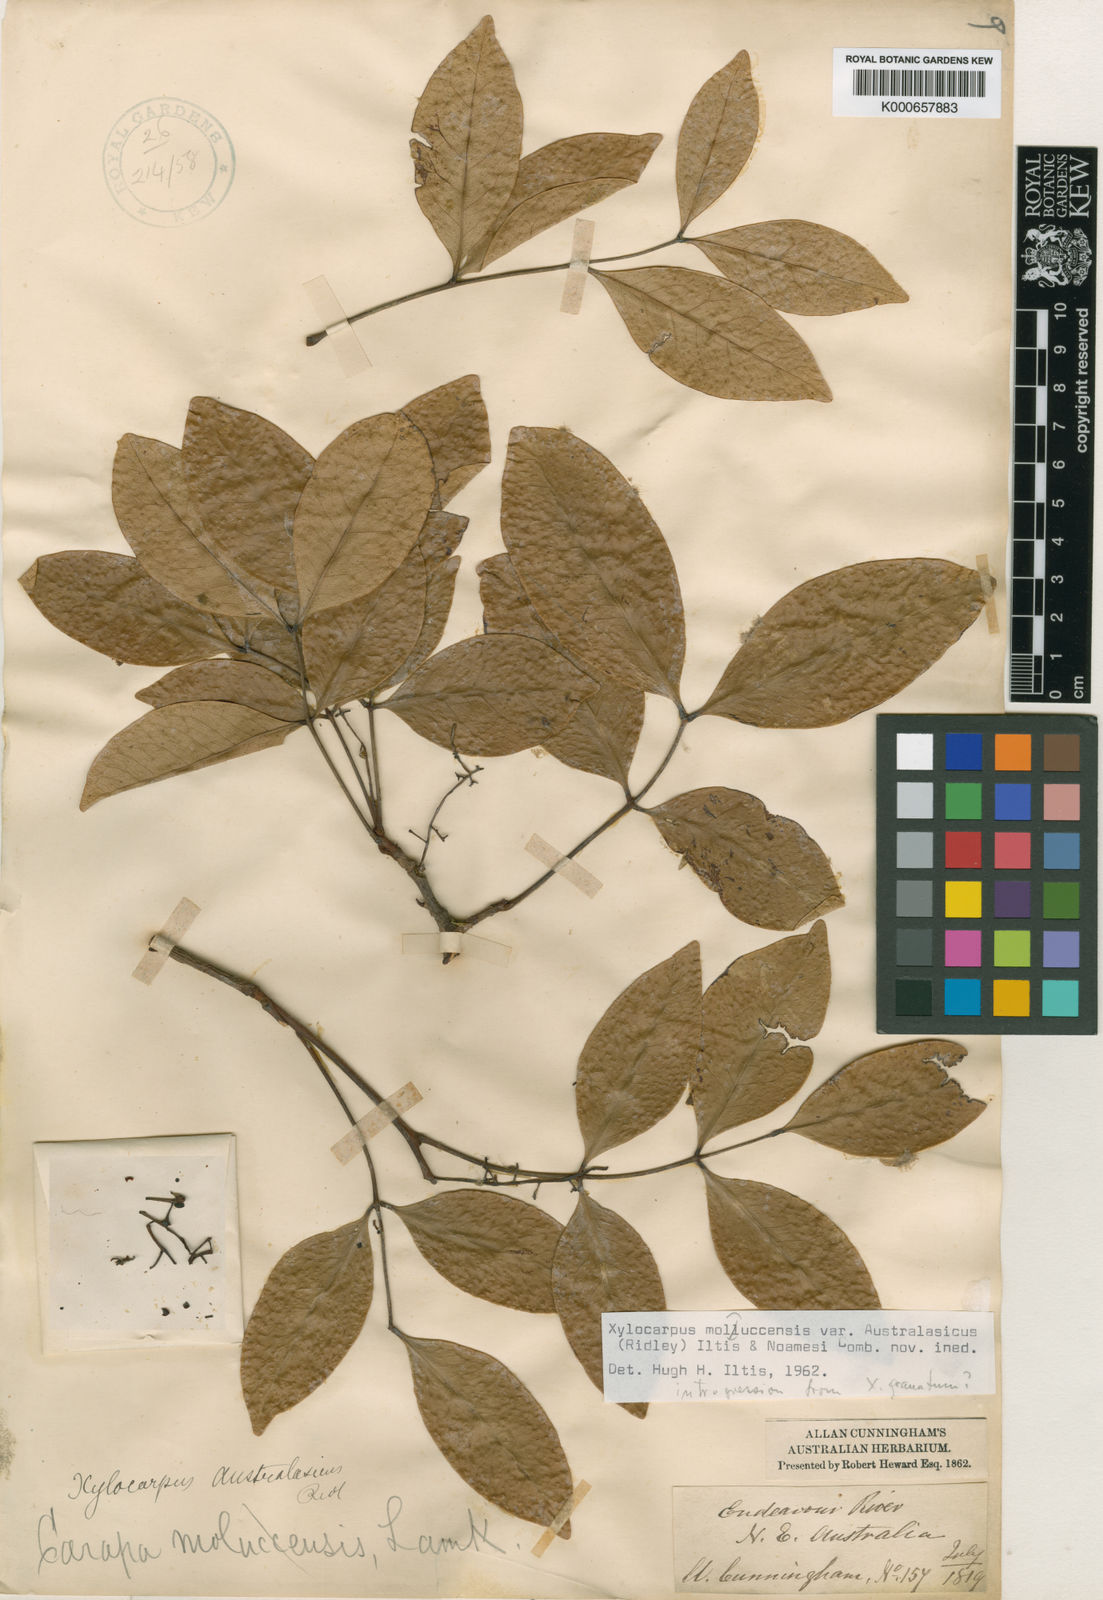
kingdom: Plantae
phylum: Tracheophyta
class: Magnoliopsida
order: Sapindales
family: Meliaceae
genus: Xylocarpus
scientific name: Xylocarpus moluccensis
